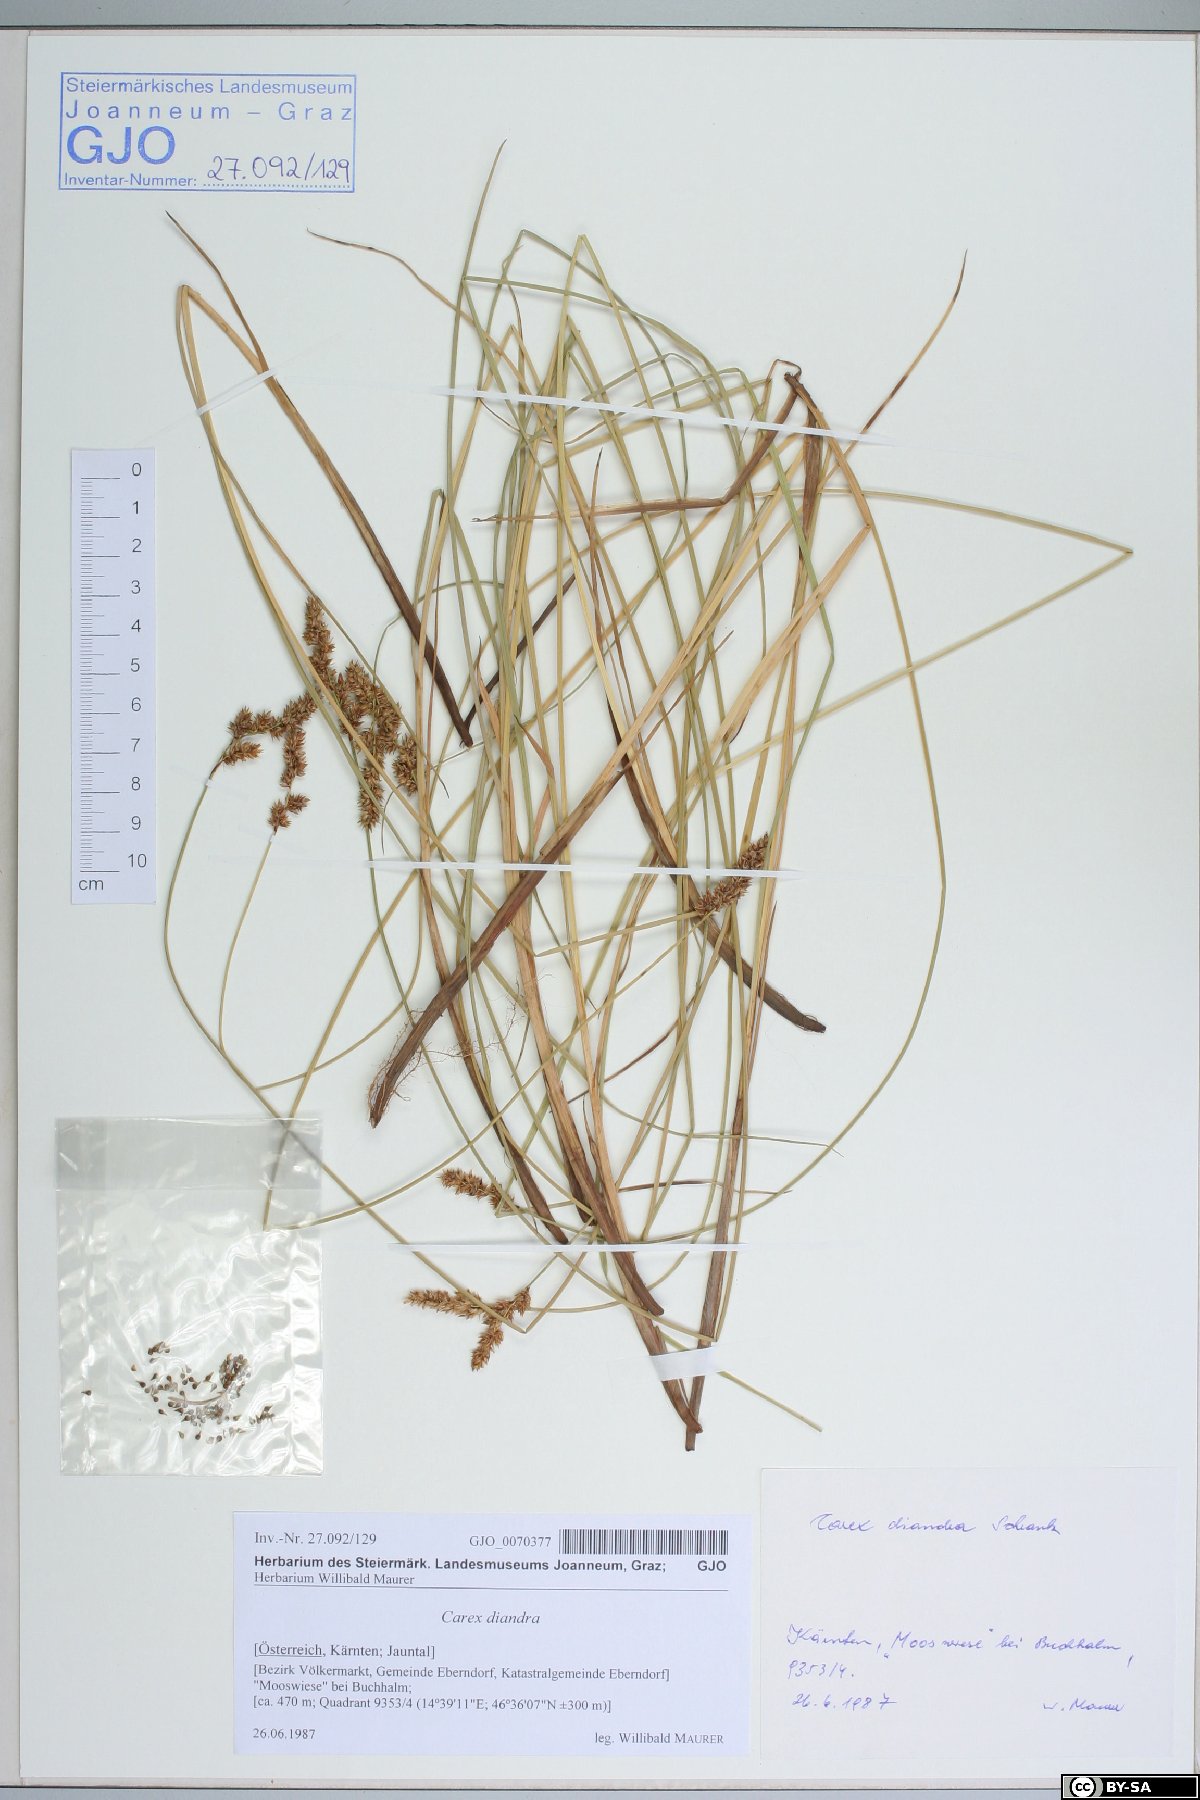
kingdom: Plantae
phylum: Tracheophyta
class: Liliopsida
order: Poales
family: Cyperaceae
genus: Carex
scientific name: Carex diandra
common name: Lesser tussock-sedge
